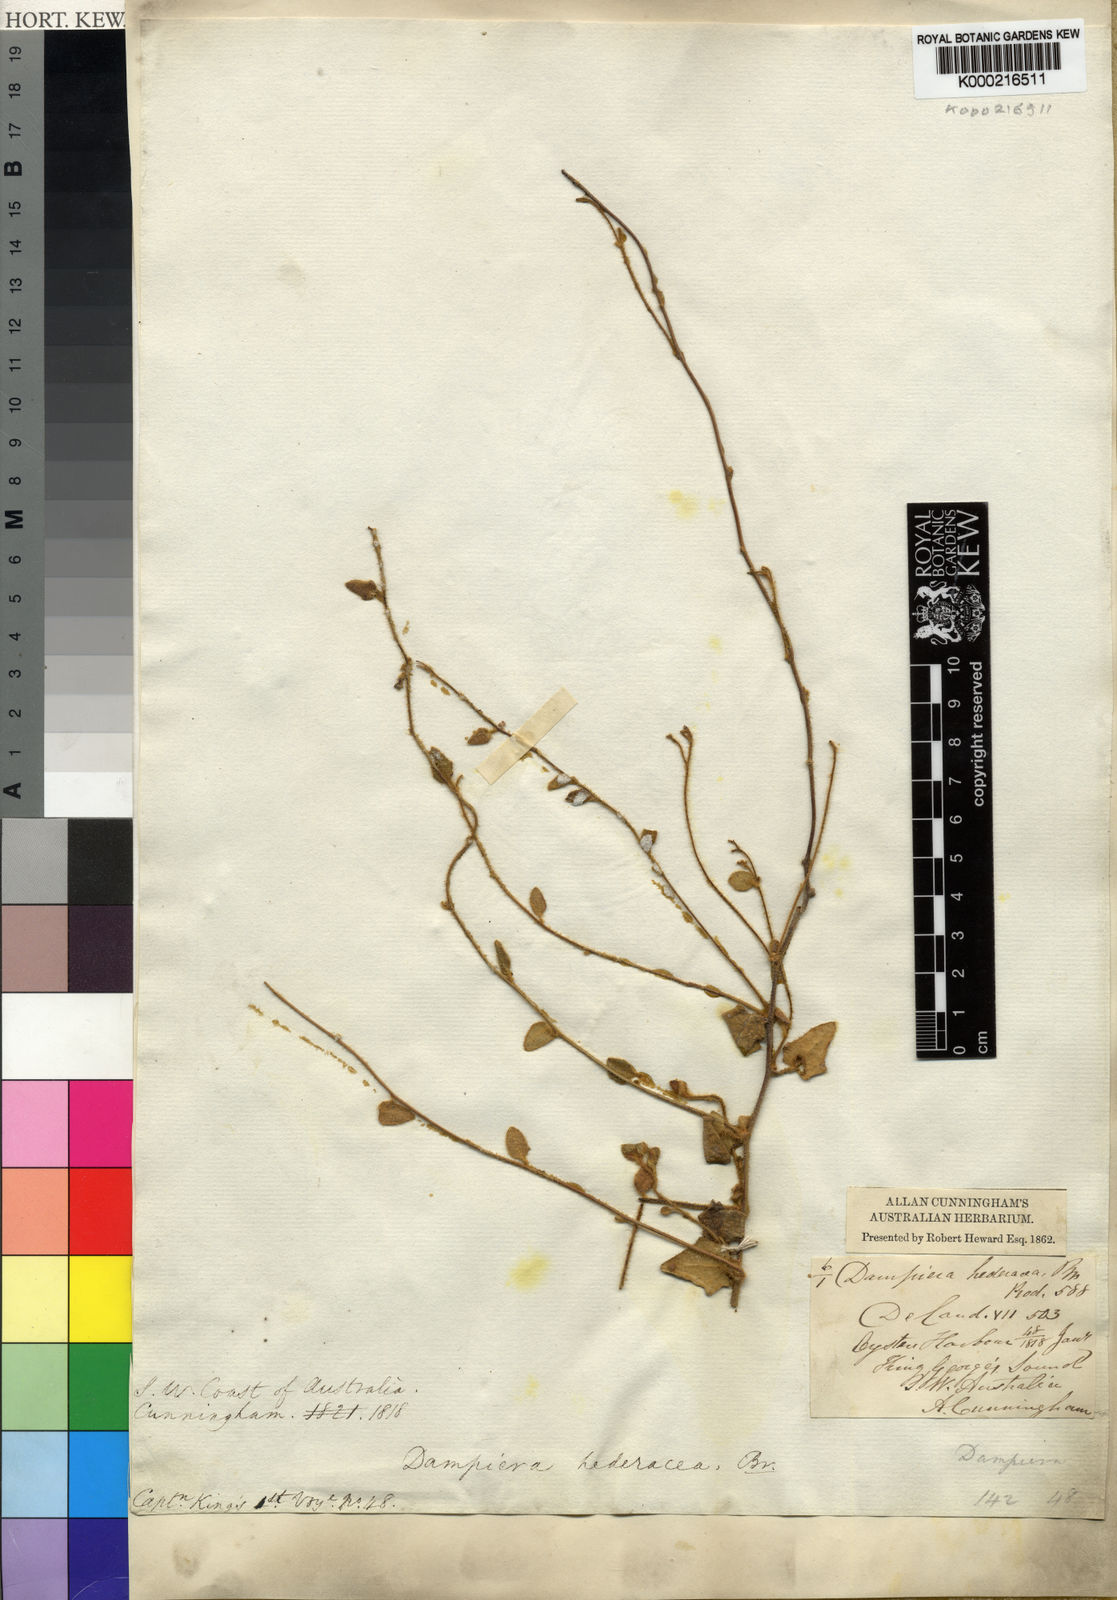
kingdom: Plantae
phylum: Tracheophyta
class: Magnoliopsida
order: Asterales
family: Goodeniaceae
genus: Dampiera
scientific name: Dampiera hederacea
